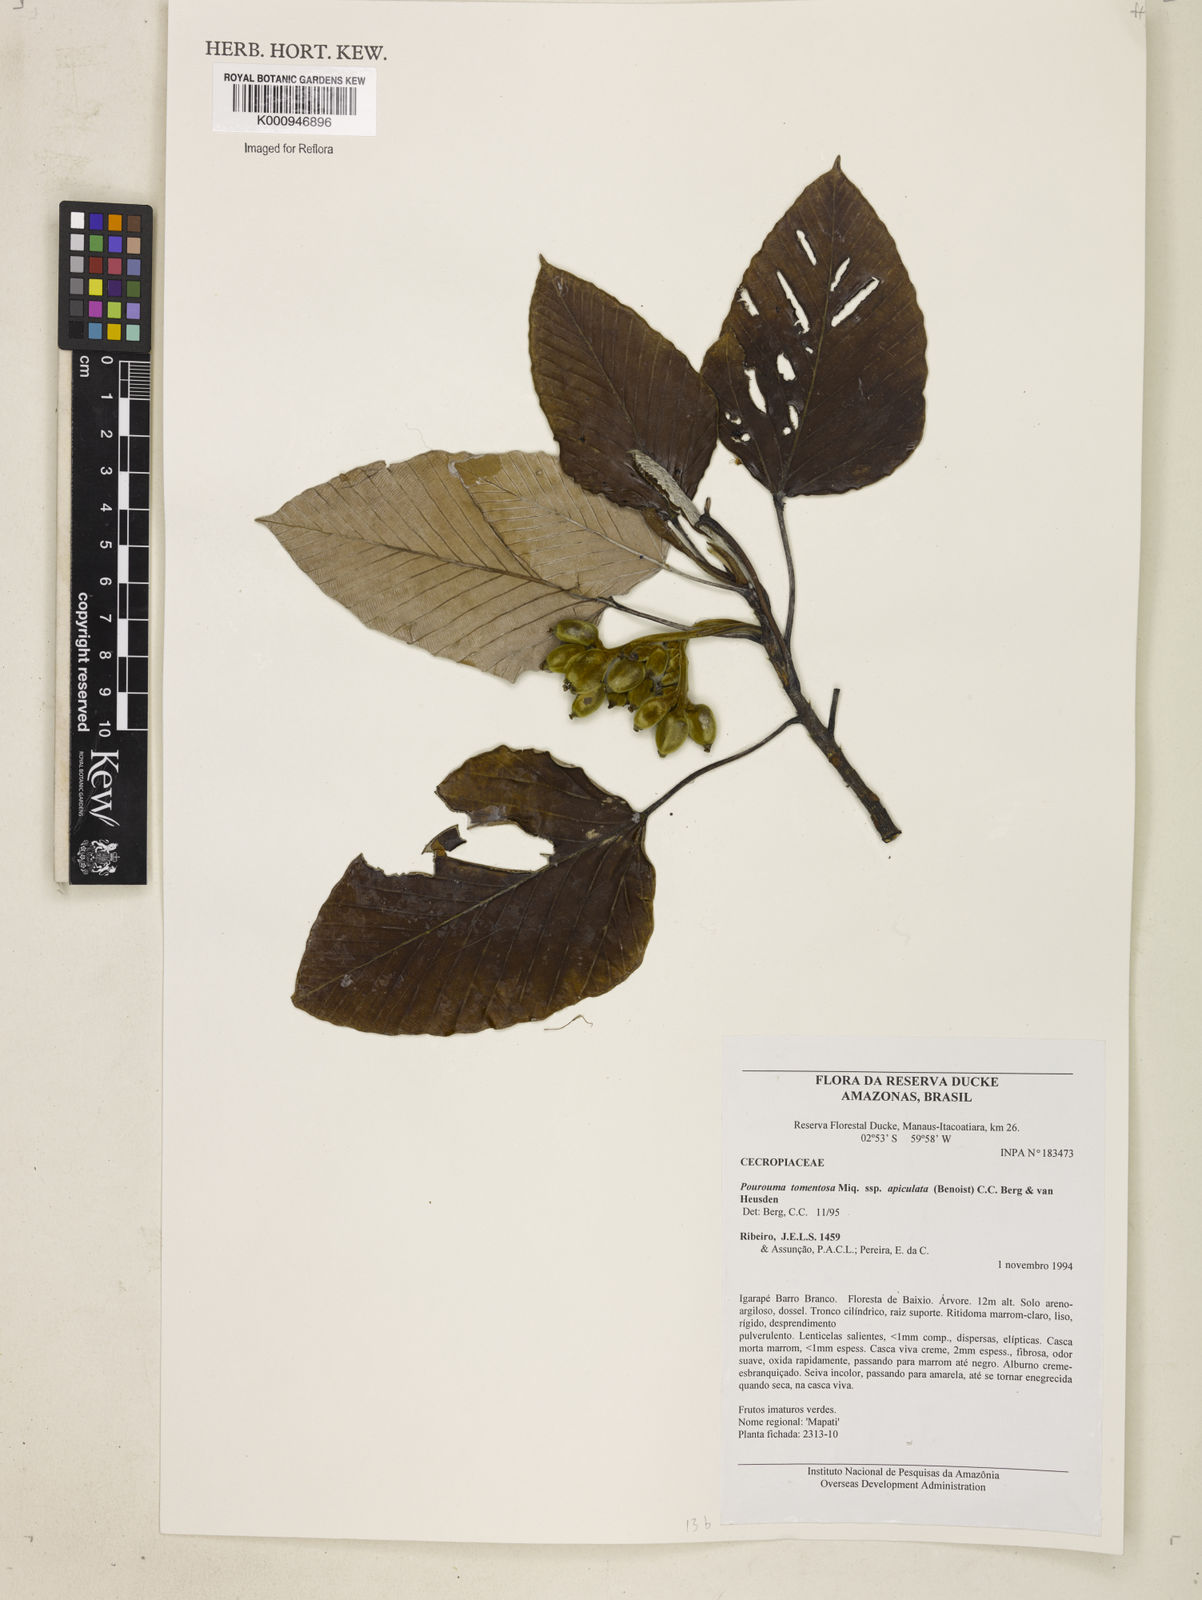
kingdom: Plantae
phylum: Tracheophyta
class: Magnoliopsida
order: Rosales
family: Urticaceae
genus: Pourouma
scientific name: Pourouma tomentosa
